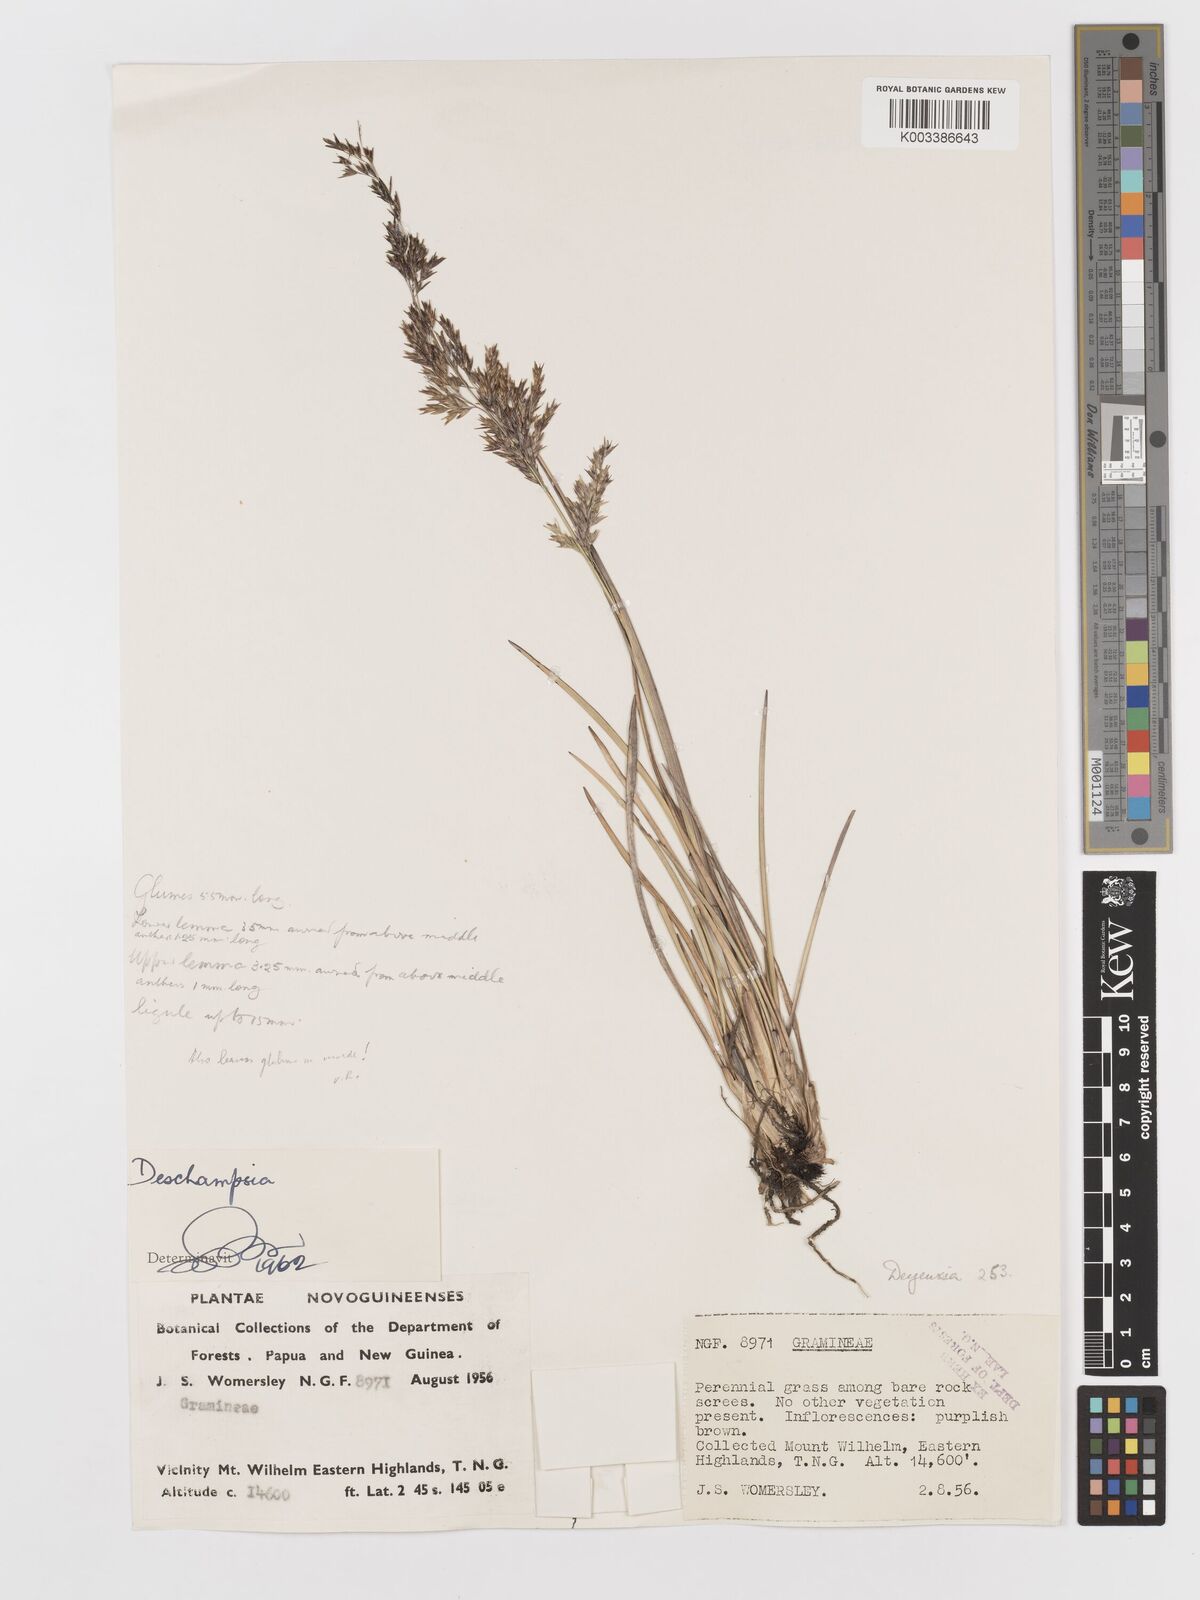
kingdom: Plantae
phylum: Tracheophyta
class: Liliopsida
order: Poales
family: Poaceae
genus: Deschampsia
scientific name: Deschampsia klossii
